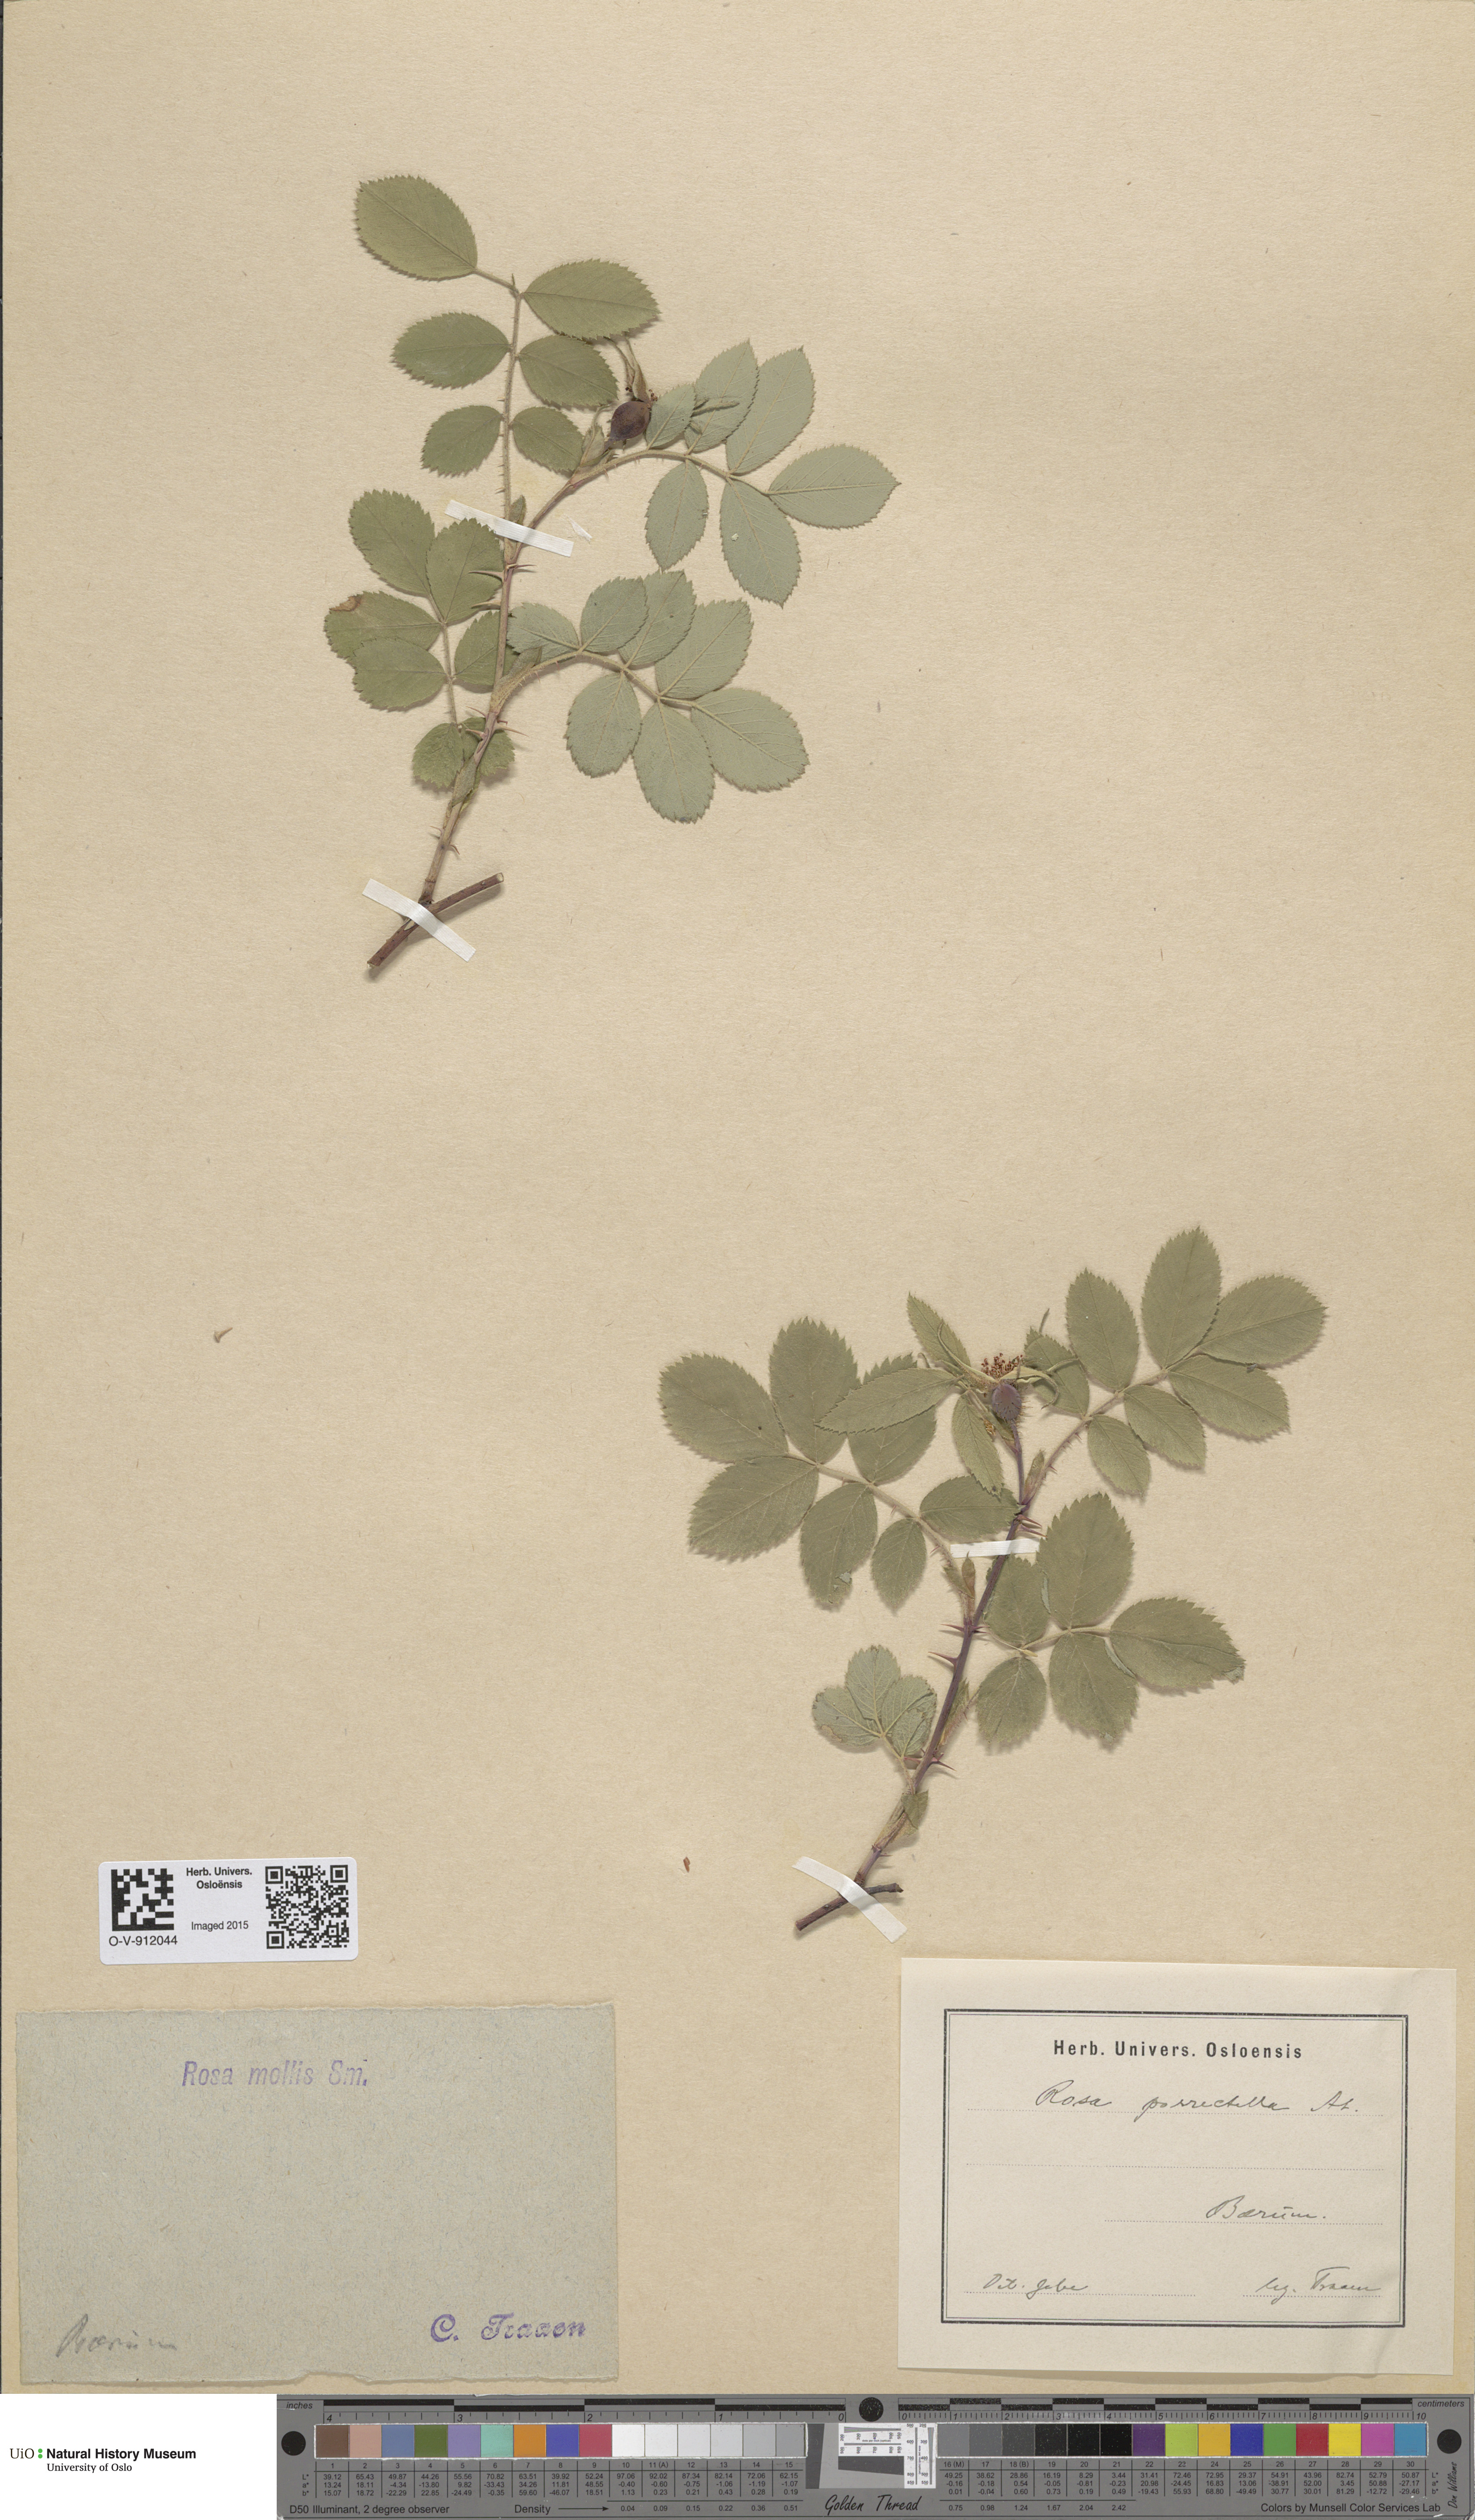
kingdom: Plantae
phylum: Tracheophyta
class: Magnoliopsida
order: Rosales
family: Rosaceae
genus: Rosa
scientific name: Rosa mollis
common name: Rose
